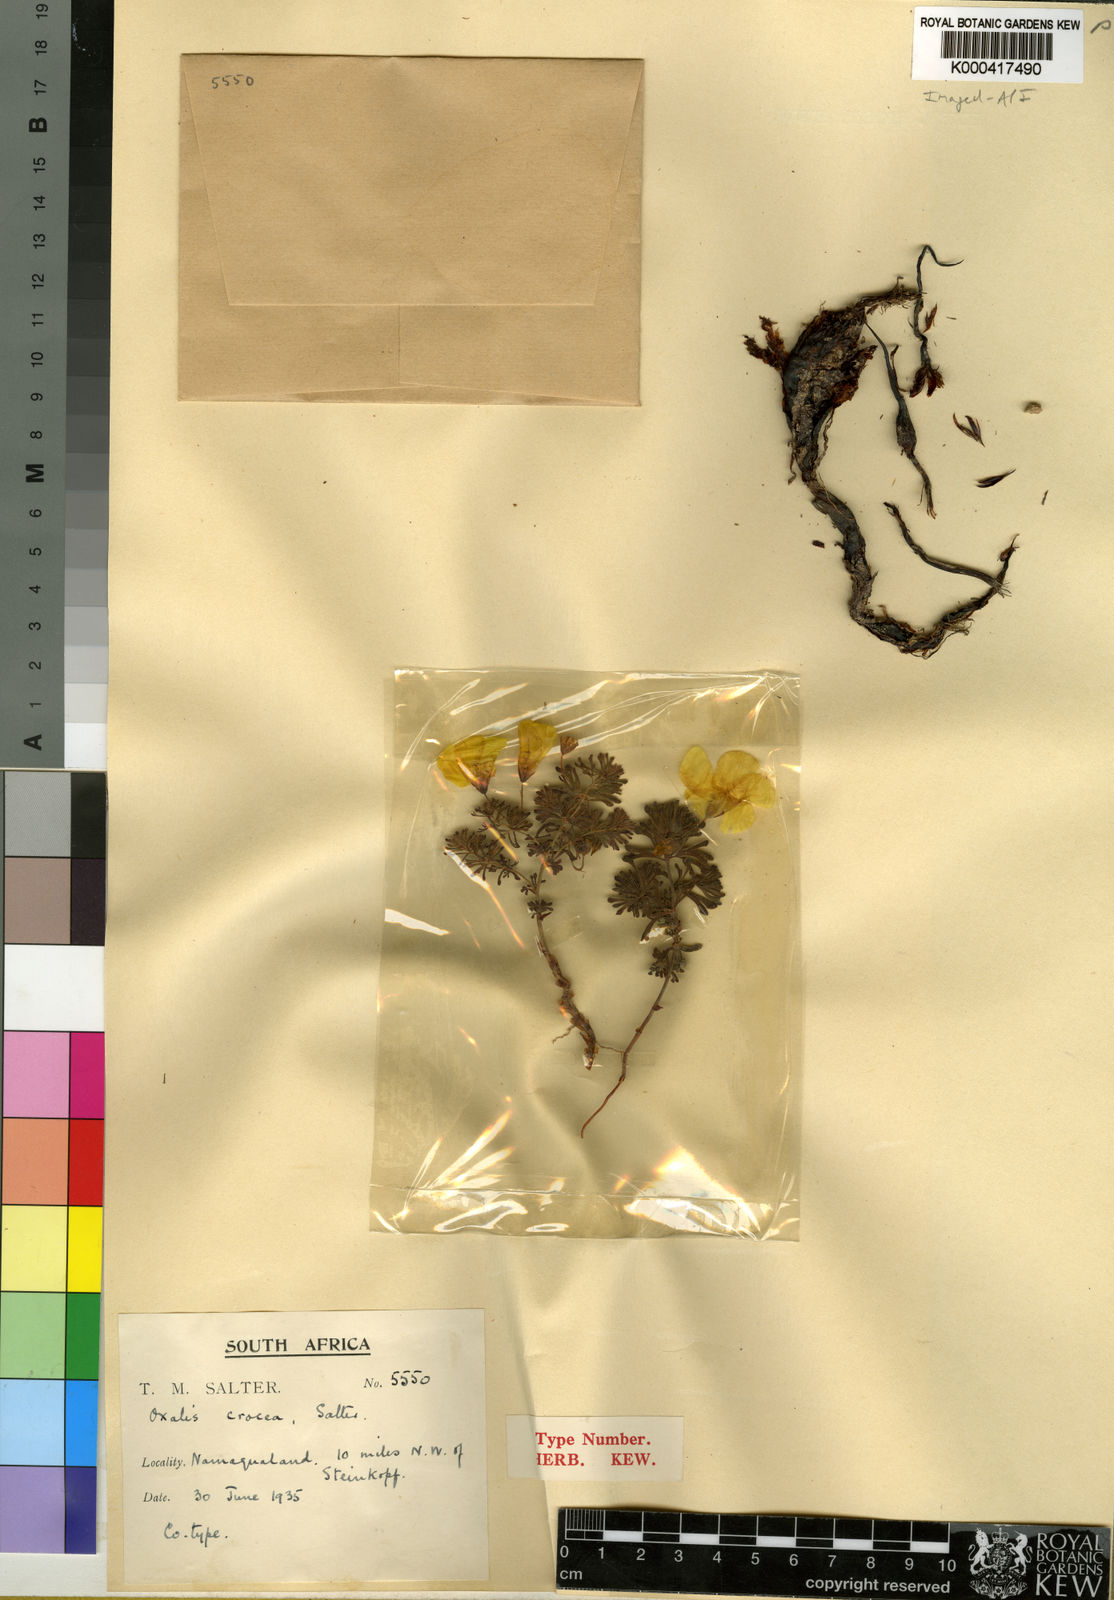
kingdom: Plantae
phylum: Tracheophyta
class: Magnoliopsida
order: Oxalidales
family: Oxalidaceae
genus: Oxalis
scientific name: Oxalis crocea
